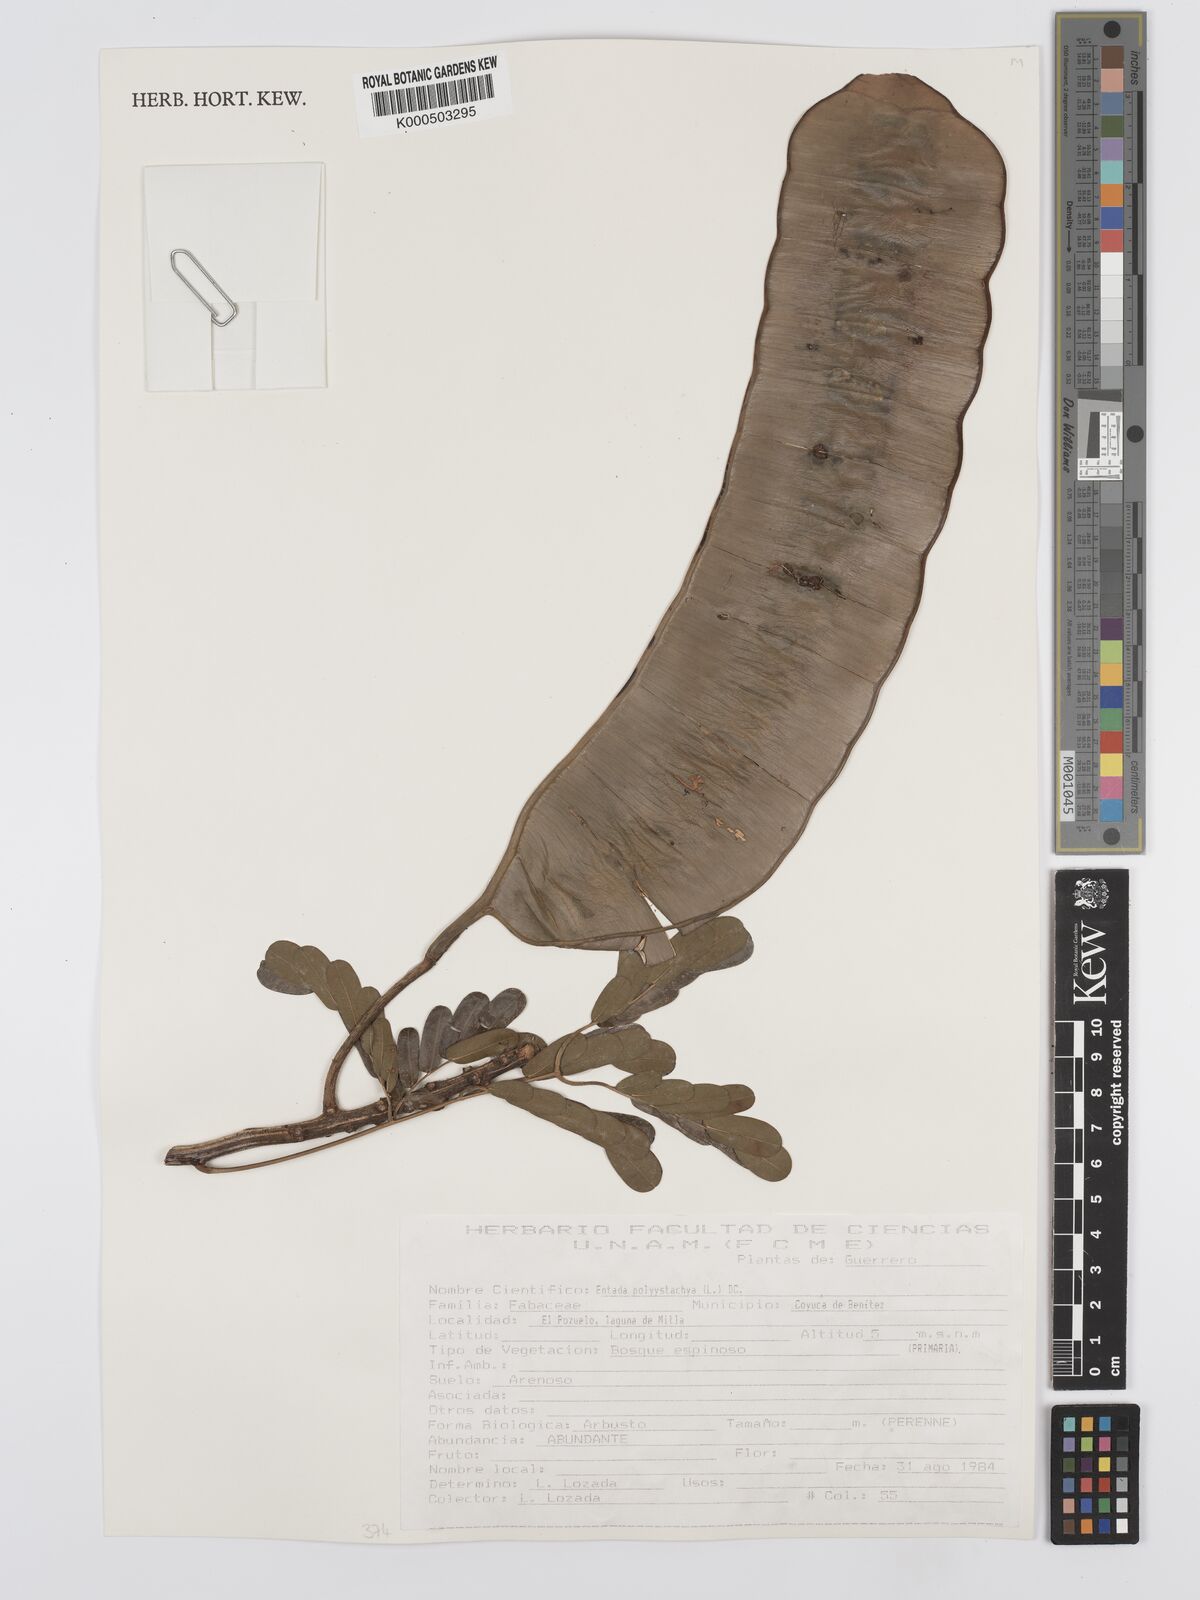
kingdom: Plantae
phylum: Tracheophyta
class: Magnoliopsida
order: Fabales
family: Fabaceae
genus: Entada
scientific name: Entada polystachya
